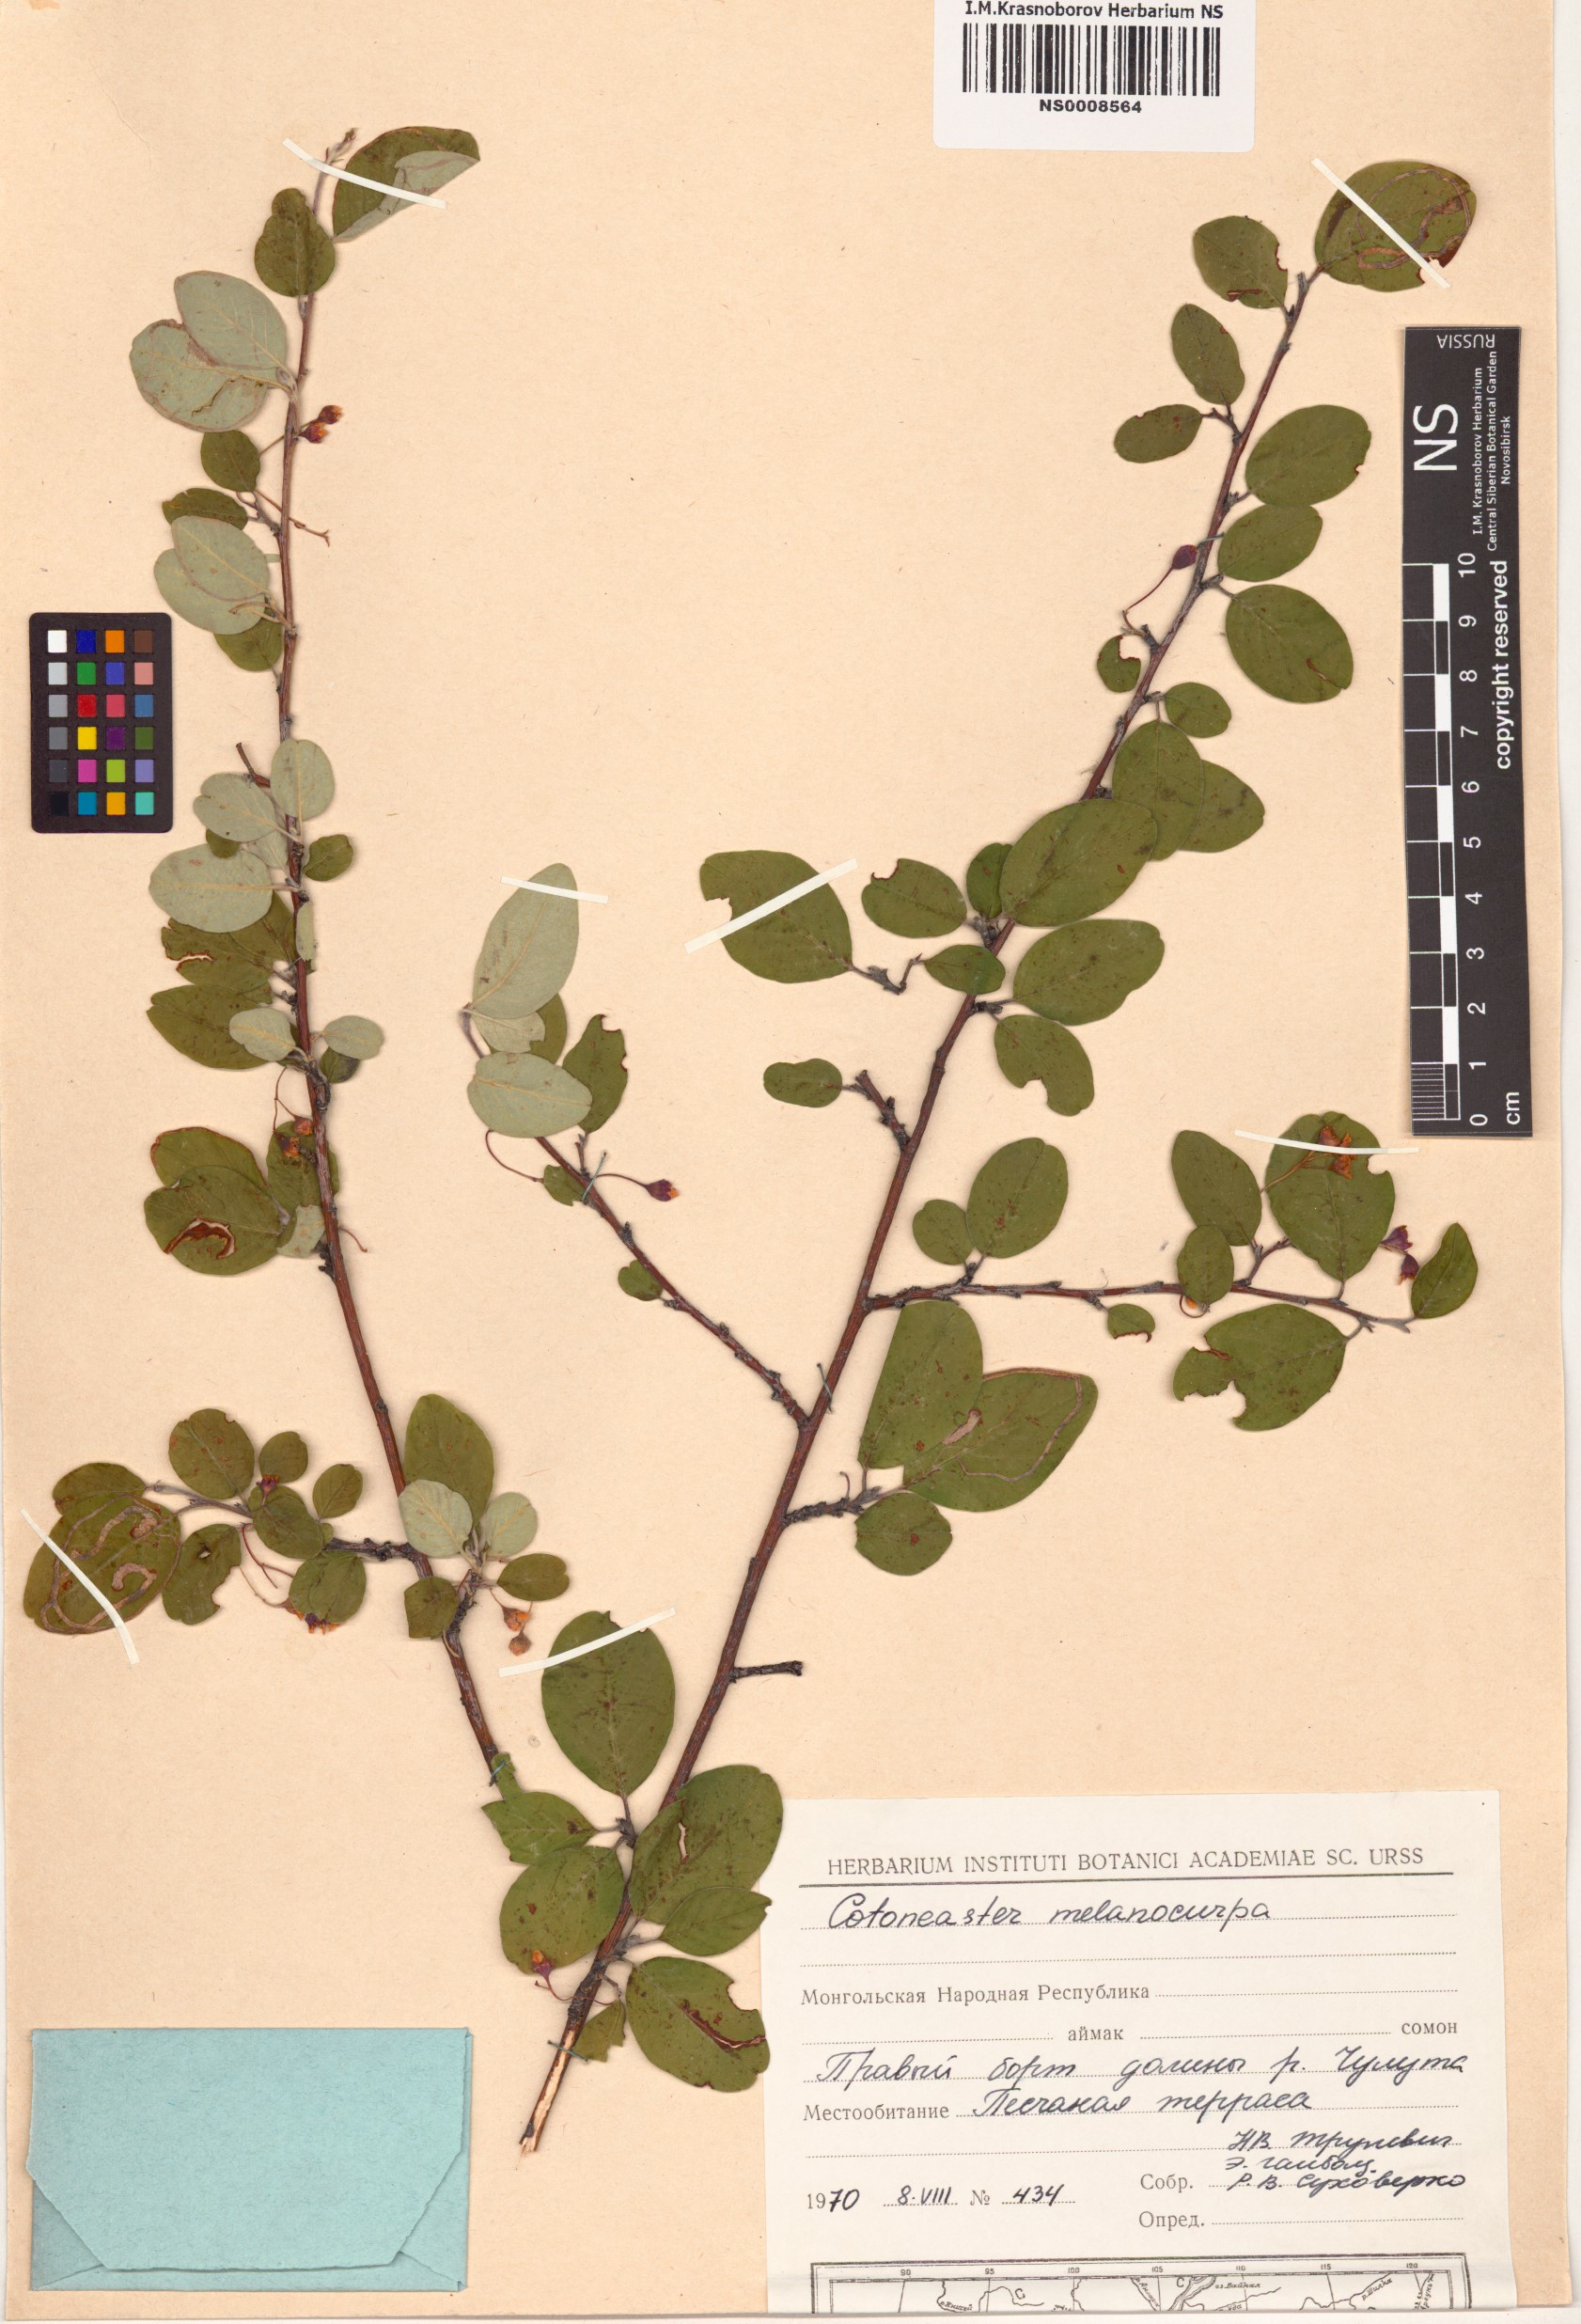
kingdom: Plantae
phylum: Tracheophyta
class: Magnoliopsida
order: Rosales
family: Rosaceae
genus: Cotoneaster
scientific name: Cotoneaster melanocarpus
